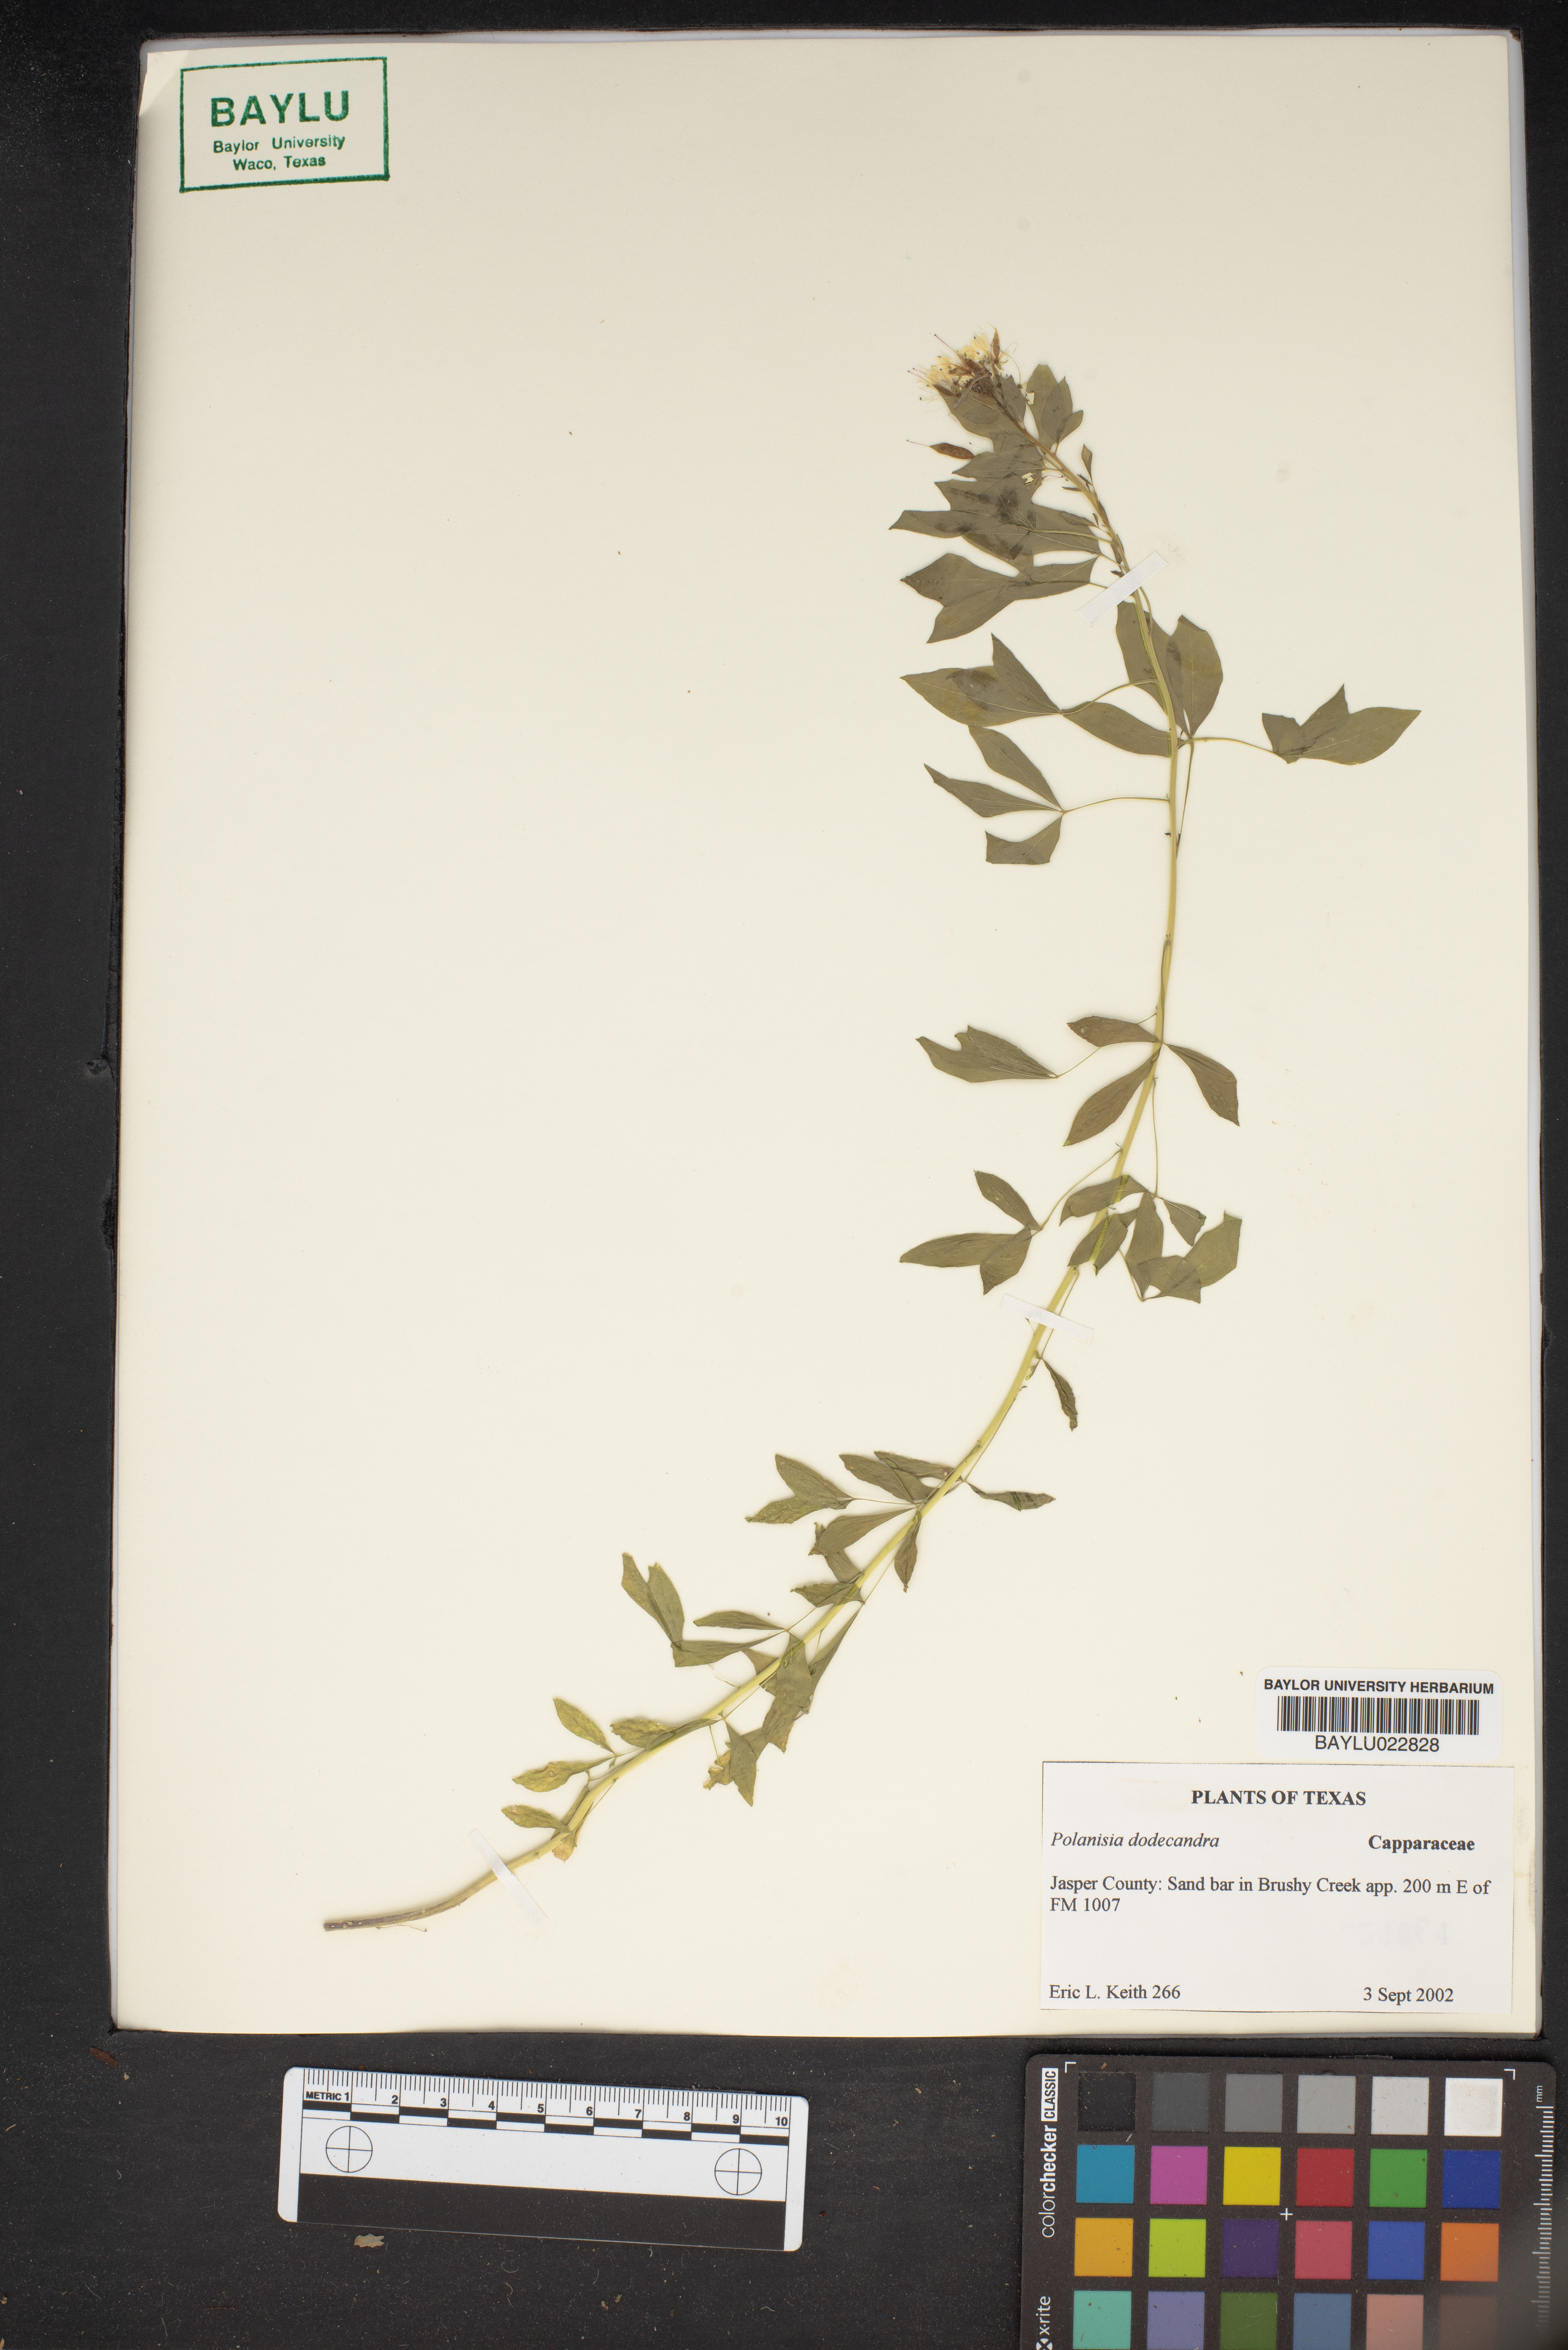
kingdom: Plantae
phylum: Tracheophyta
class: Magnoliopsida
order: Brassicales
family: Cleomaceae
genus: Polanisia
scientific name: Polanisia dodecandra
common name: Clammyweed
